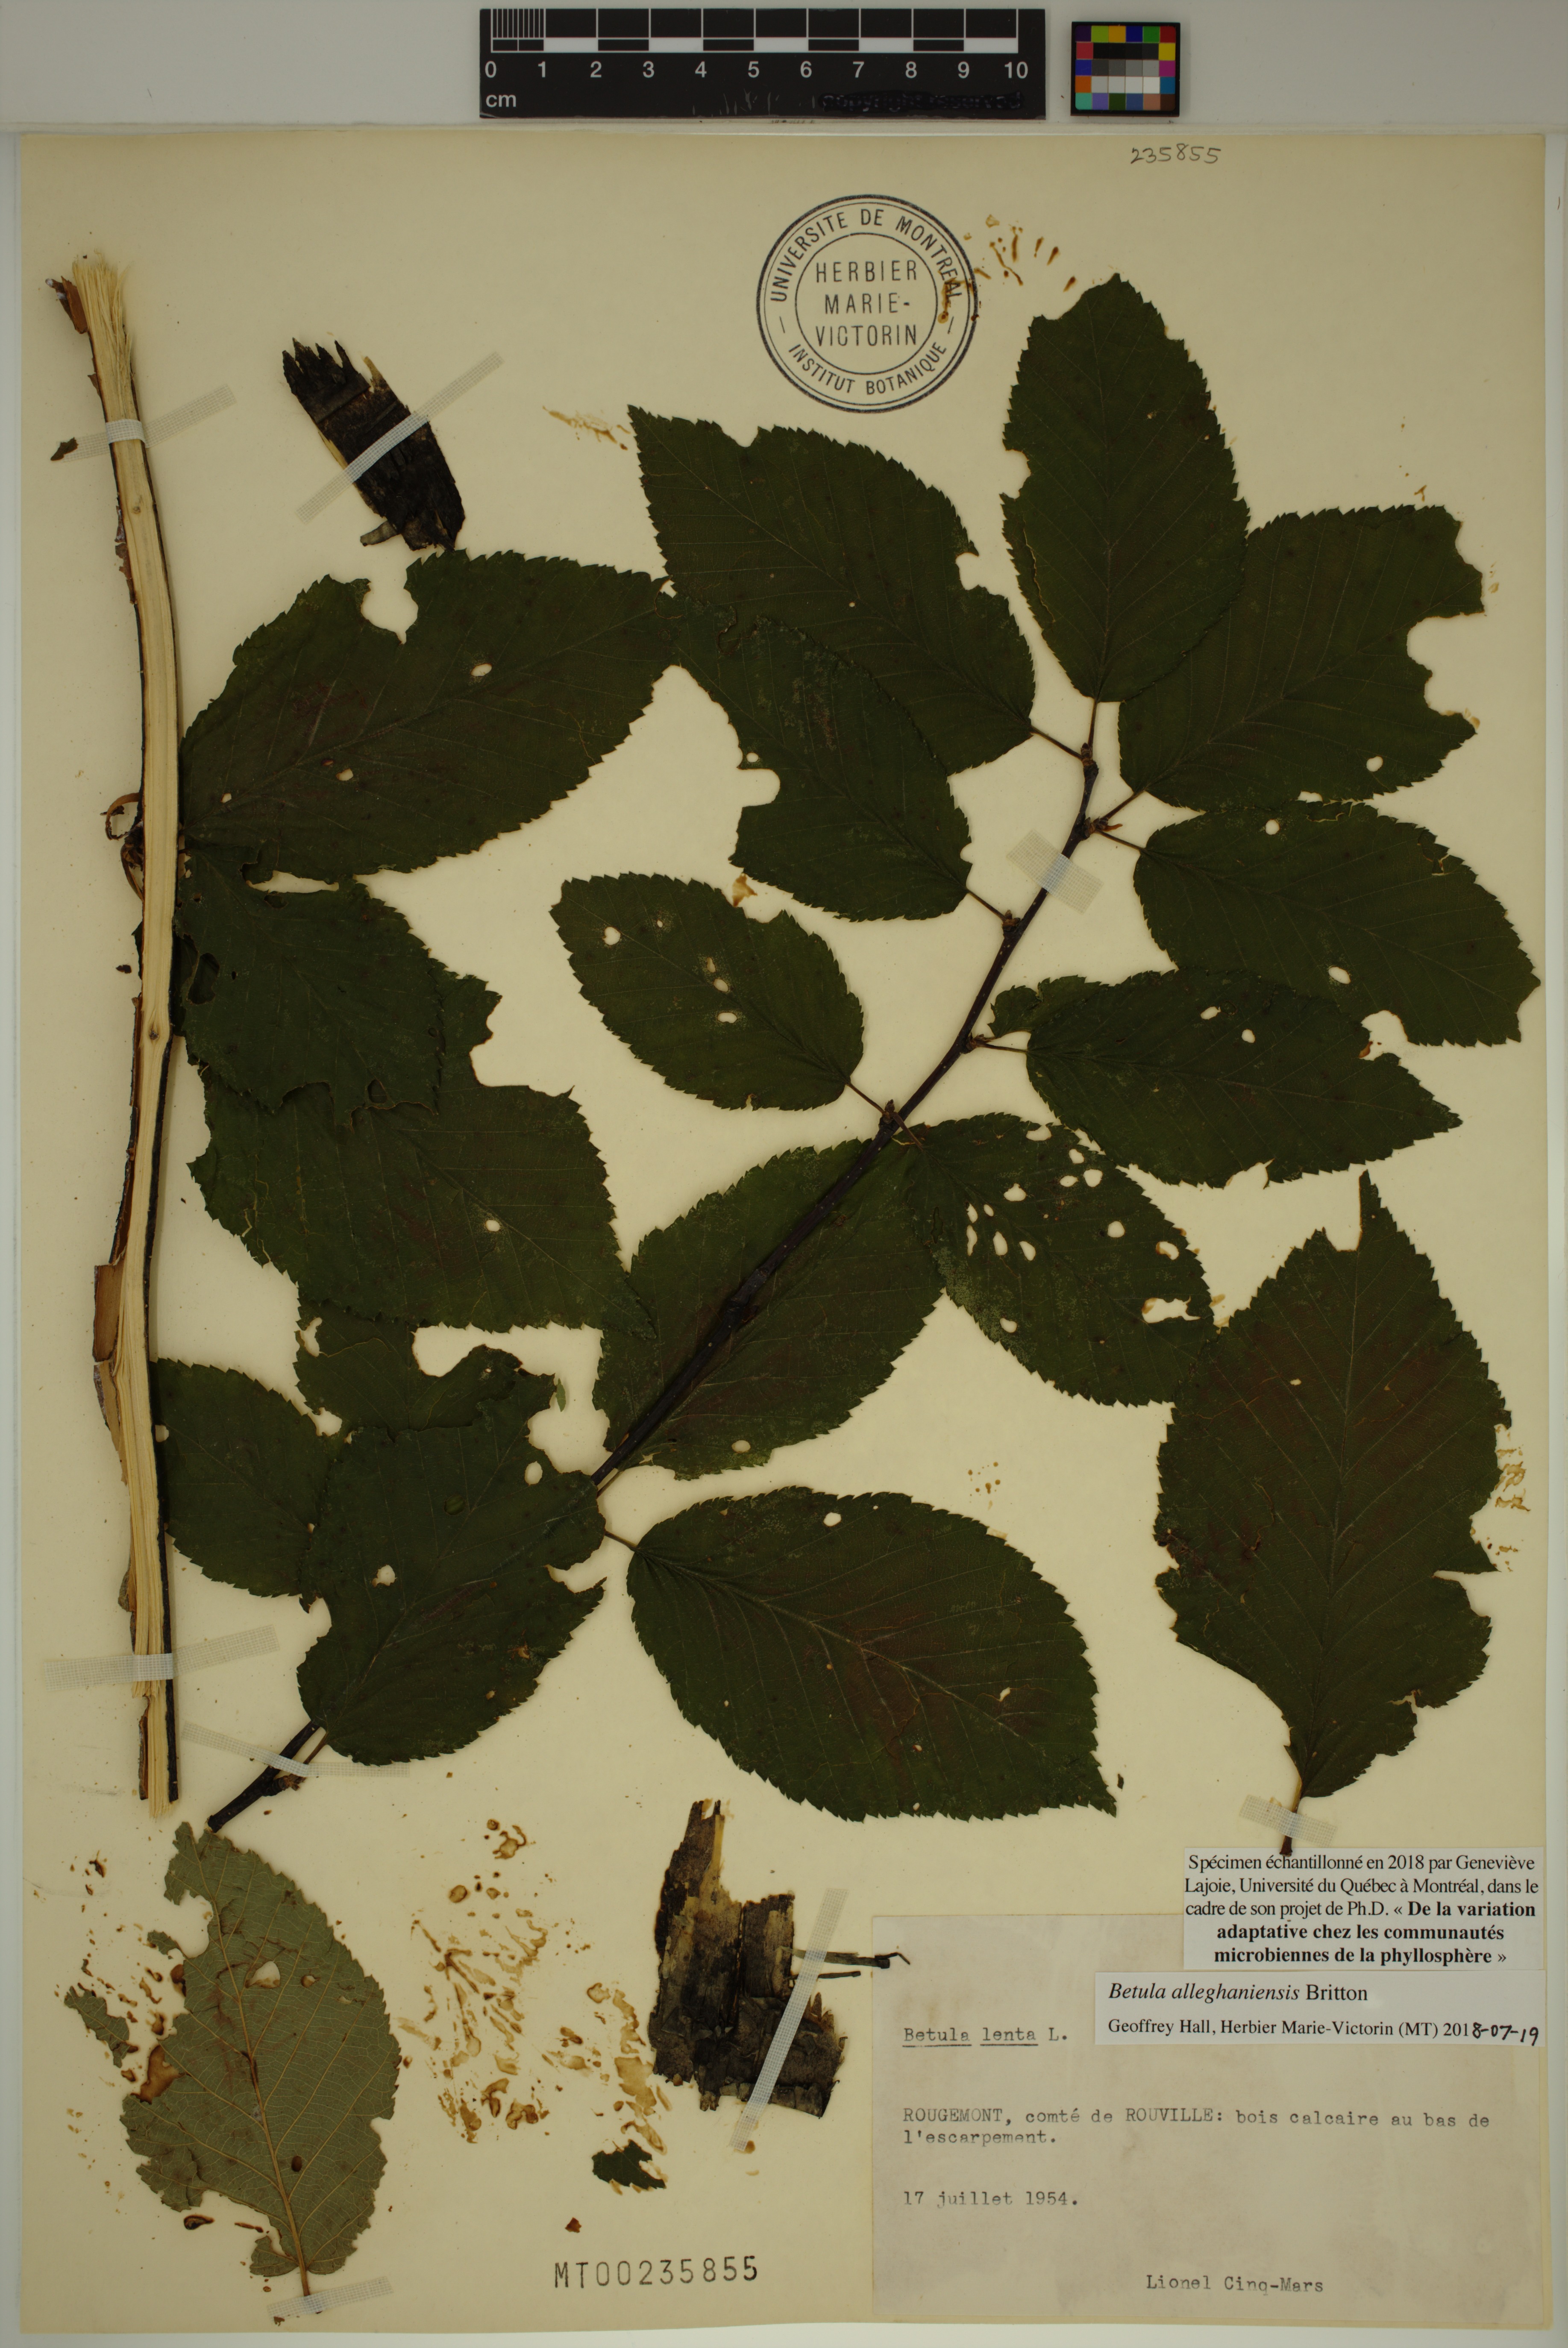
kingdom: Plantae
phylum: Tracheophyta
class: Magnoliopsida
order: Fagales
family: Betulaceae
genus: Betula
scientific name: Betula alleghaniensis
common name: Yellow birch
